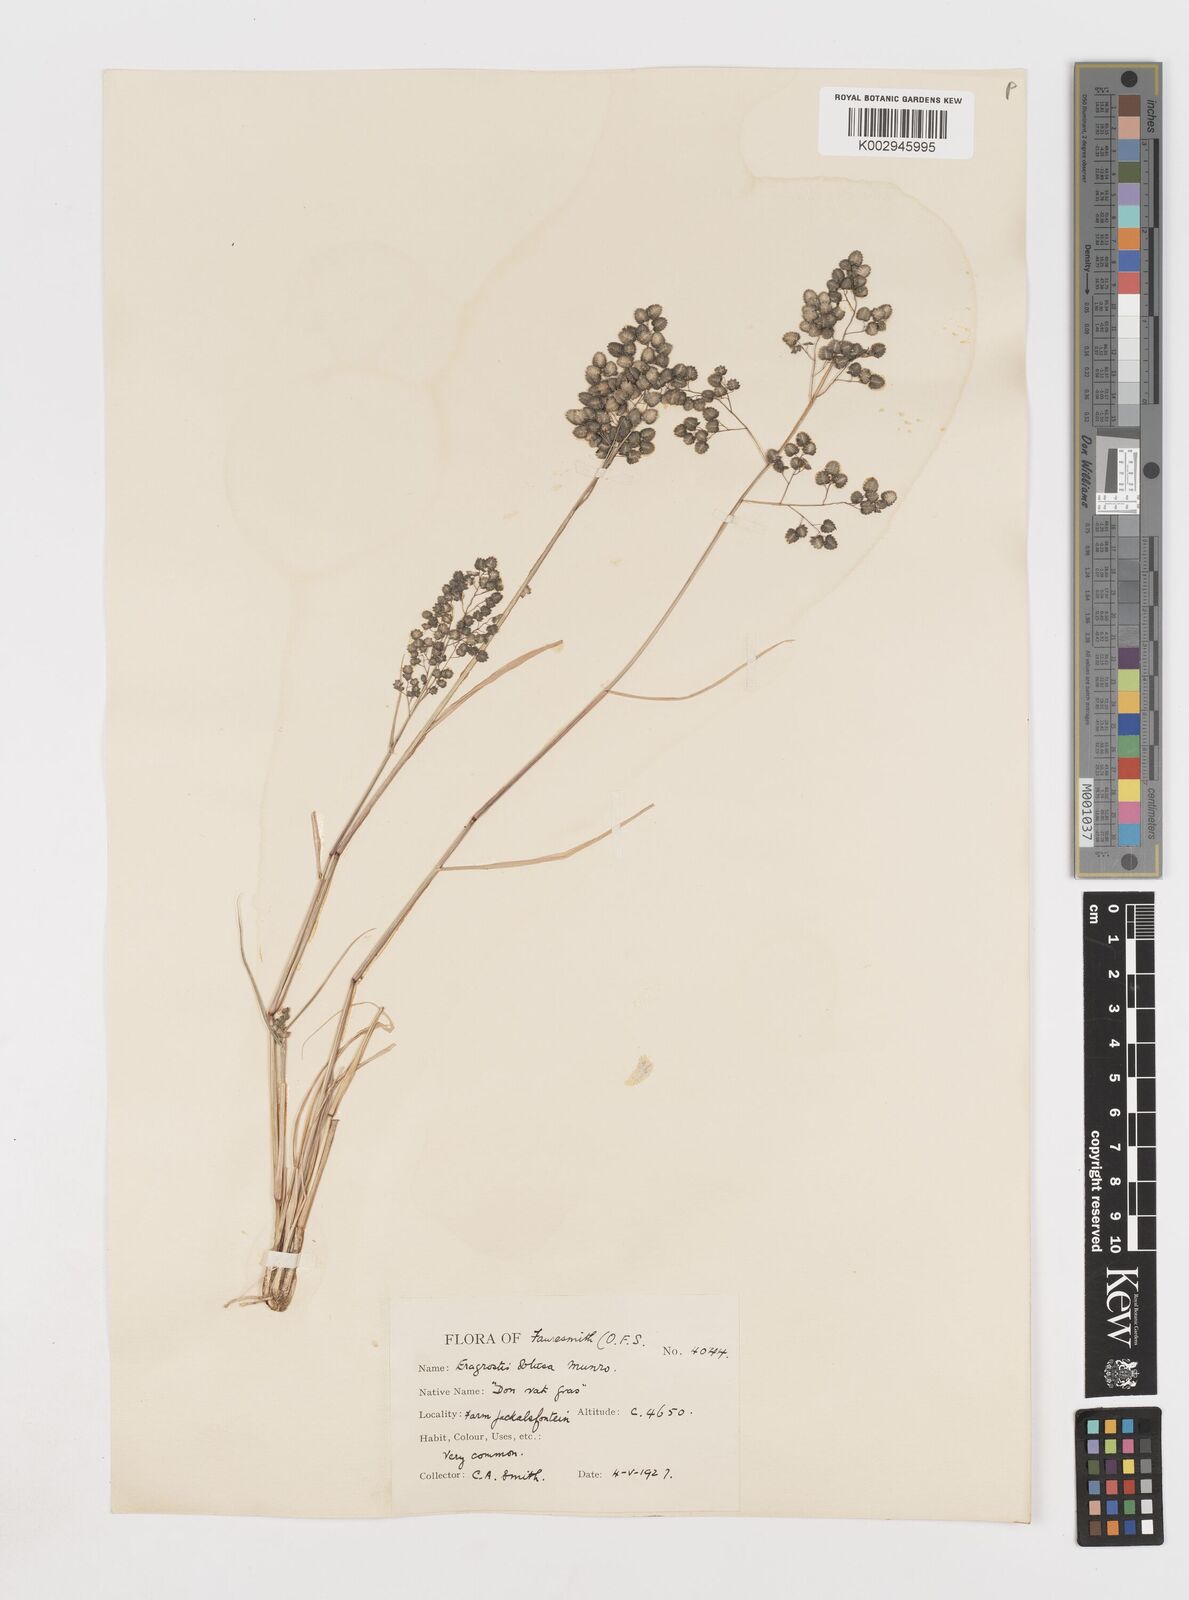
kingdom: Plantae
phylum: Tracheophyta
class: Liliopsida
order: Poales
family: Poaceae
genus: Eragrostis
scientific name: Eragrostis obtusa
